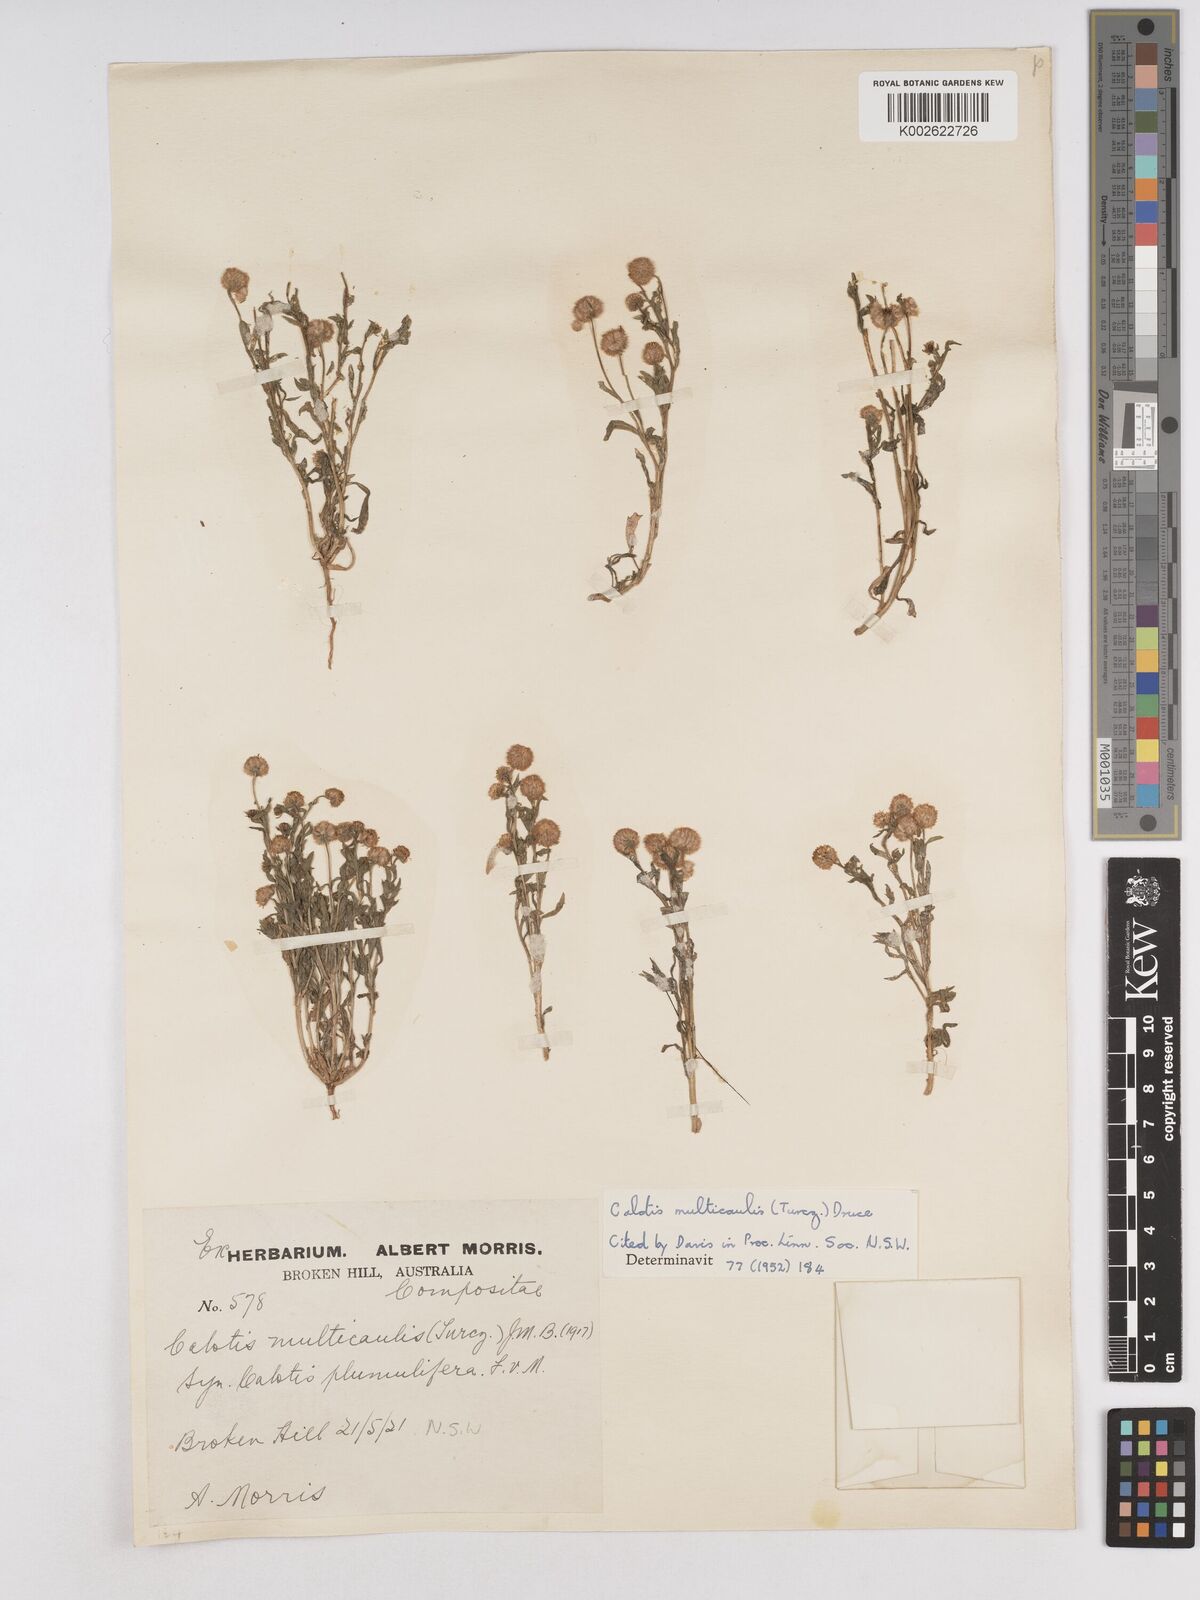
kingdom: Plantae
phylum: Tracheophyta
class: Magnoliopsida
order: Asterales
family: Asteraceae
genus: Calotis
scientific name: Calotis multicaulis
